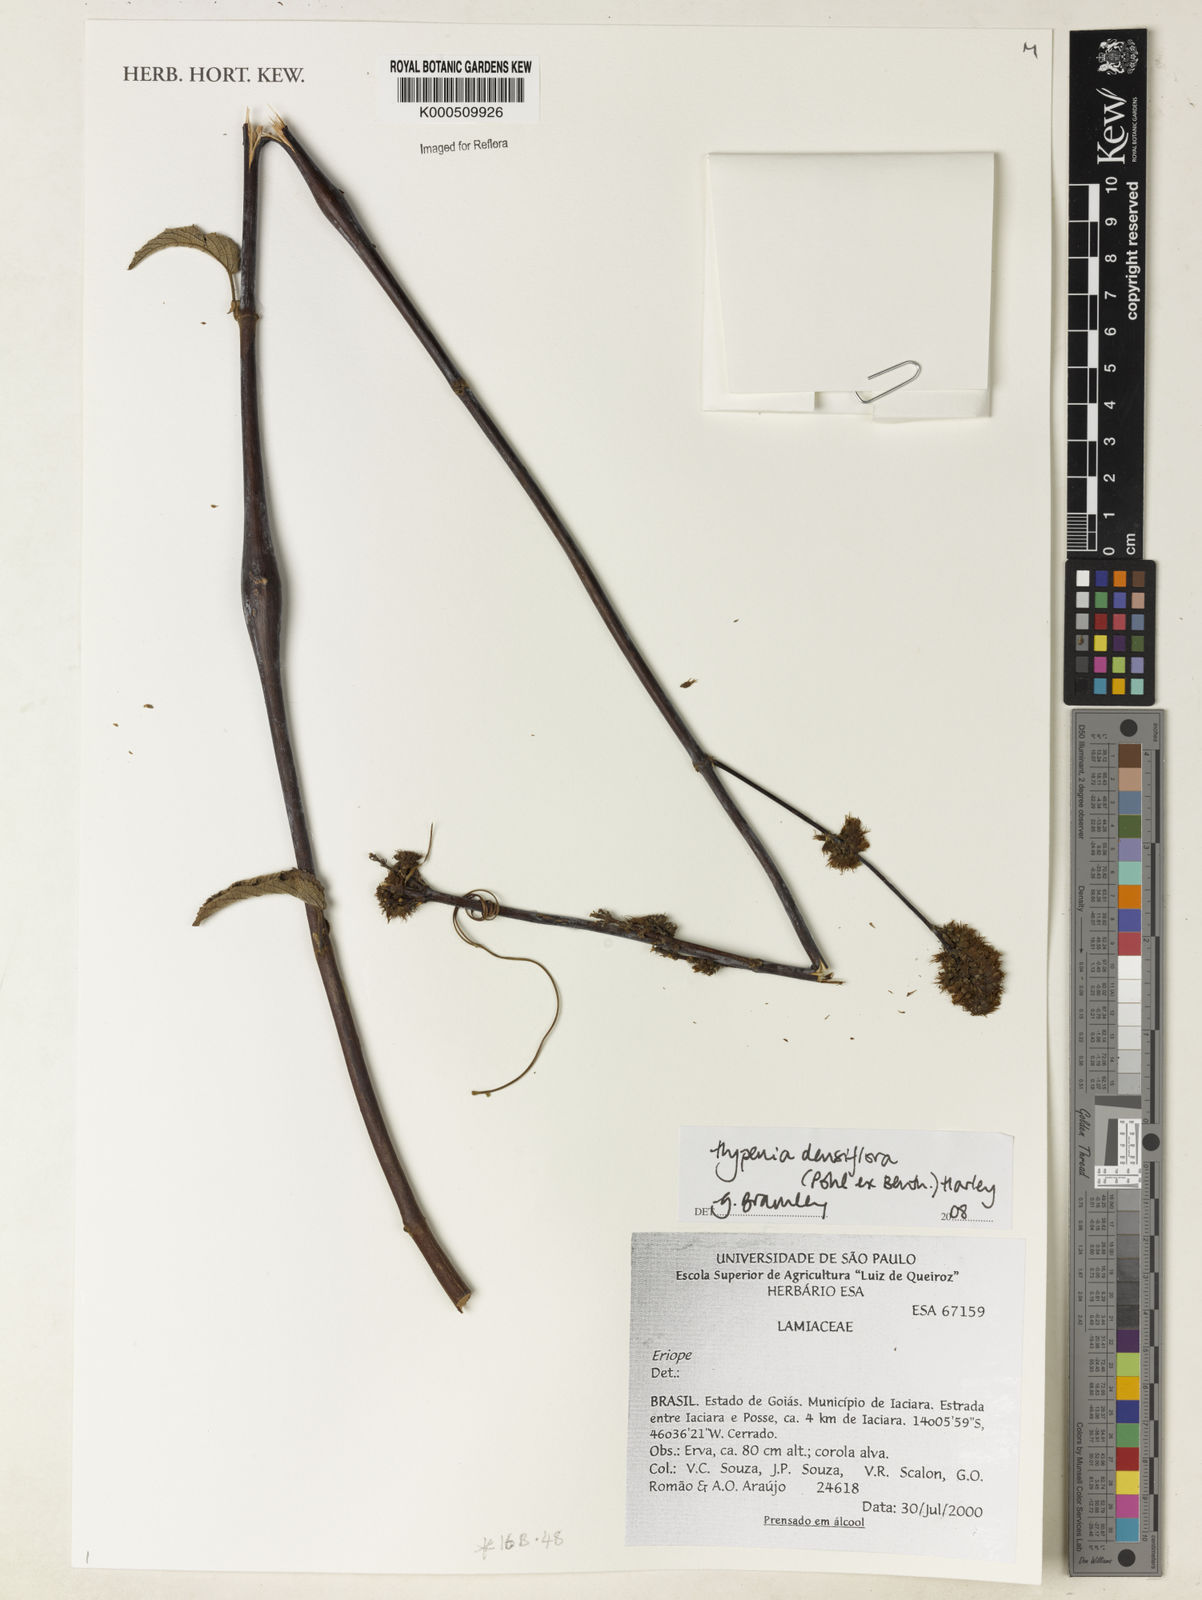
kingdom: Plantae
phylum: Tracheophyta
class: Magnoliopsida
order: Lamiales
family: Lamiaceae
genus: Hypenia
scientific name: Hypenia densiflora
